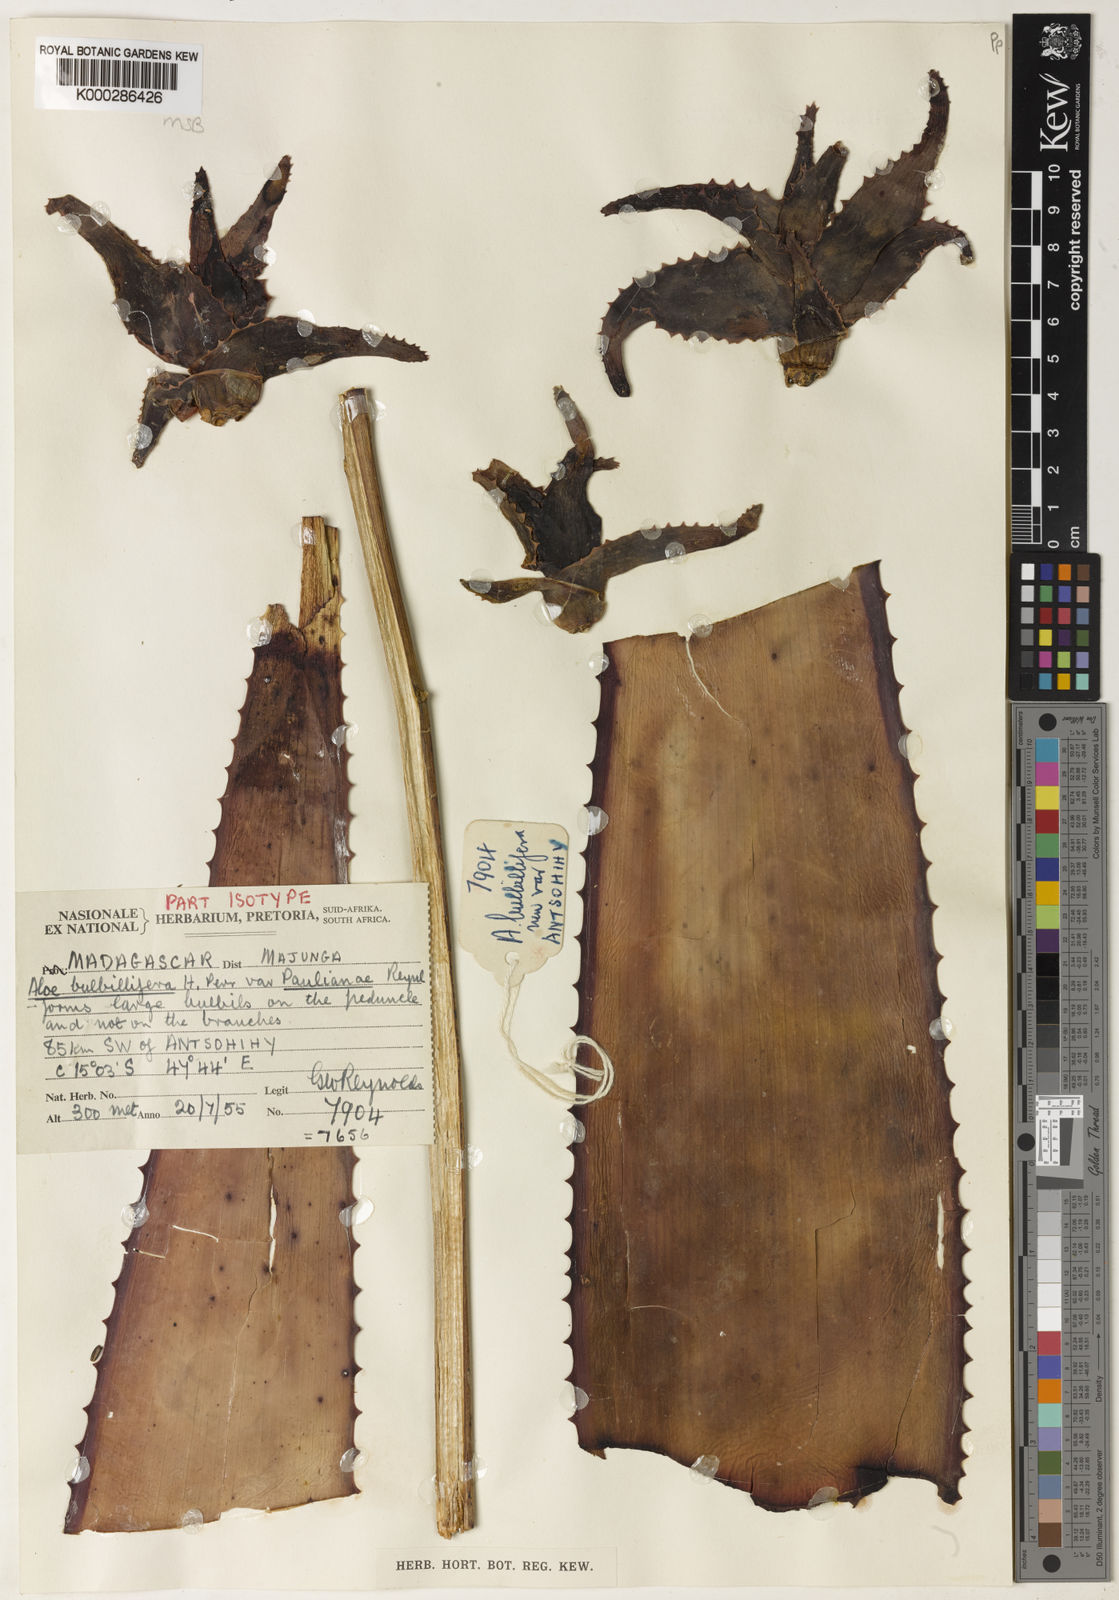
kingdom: Plantae
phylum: Tracheophyta
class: Liliopsida
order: Asparagales
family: Asphodelaceae
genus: Aloe
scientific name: Aloe
